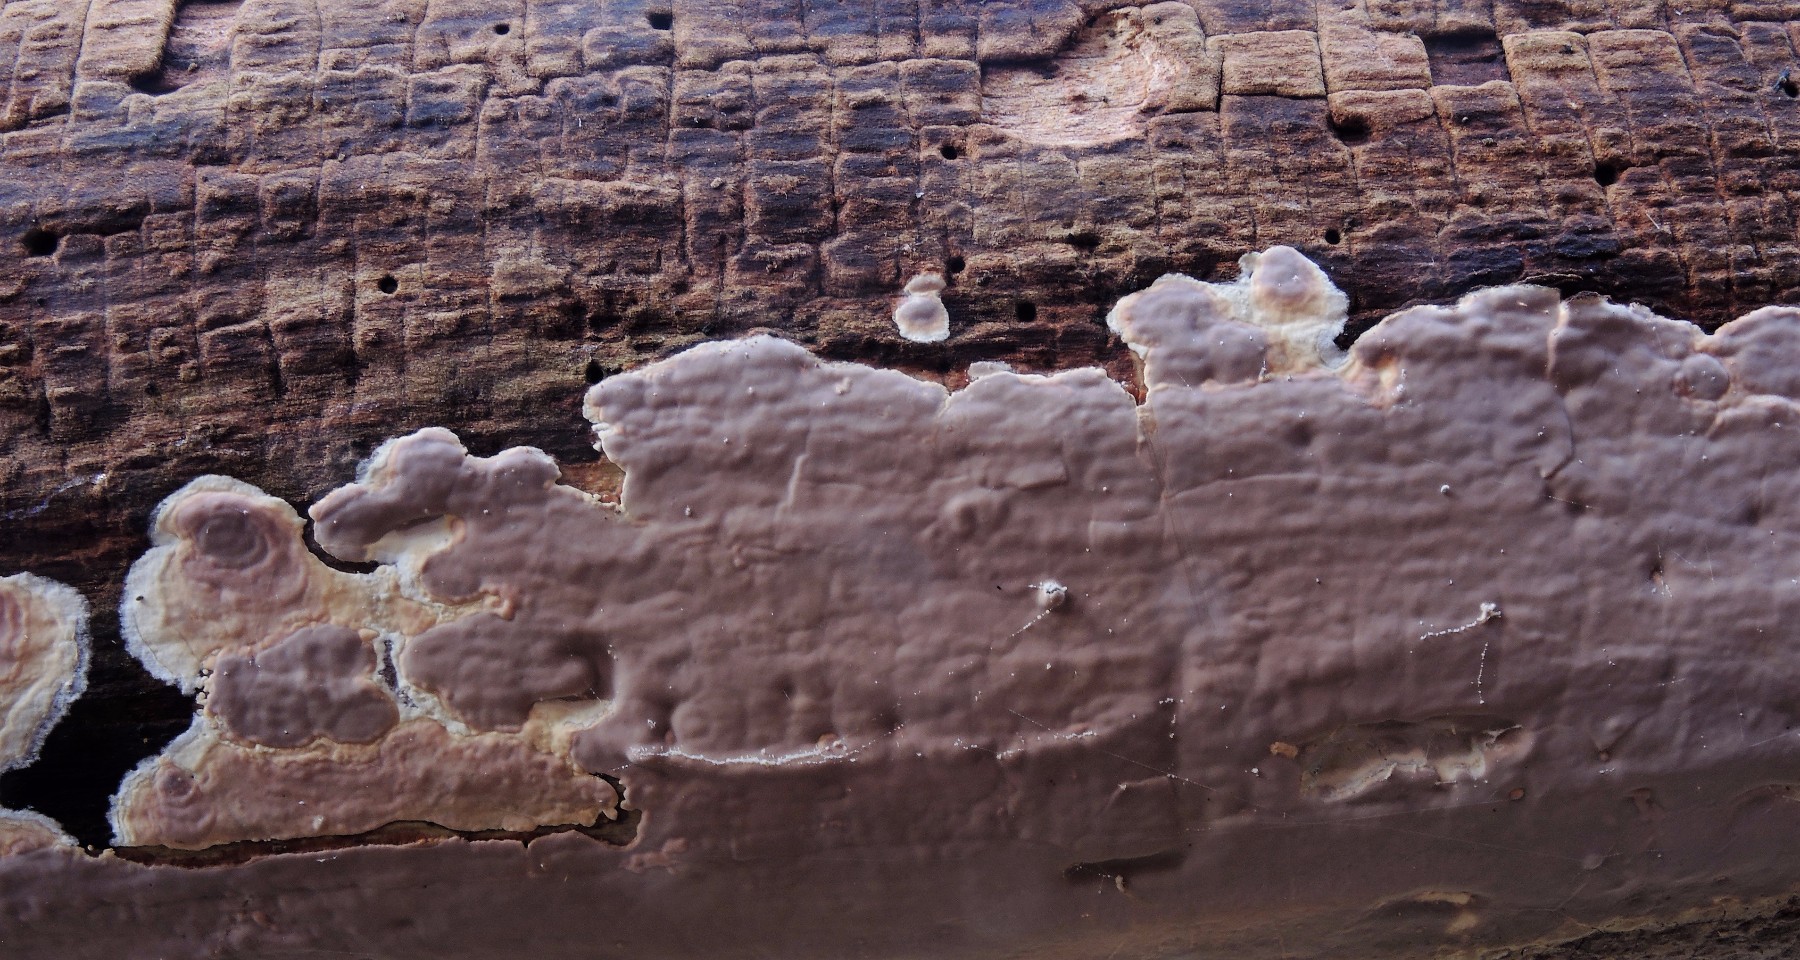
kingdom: Fungi
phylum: Basidiomycota
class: Agaricomycetes
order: Russulales
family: Peniophoraceae
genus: Scytinostroma
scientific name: Scytinostroma hemidichophyticum
